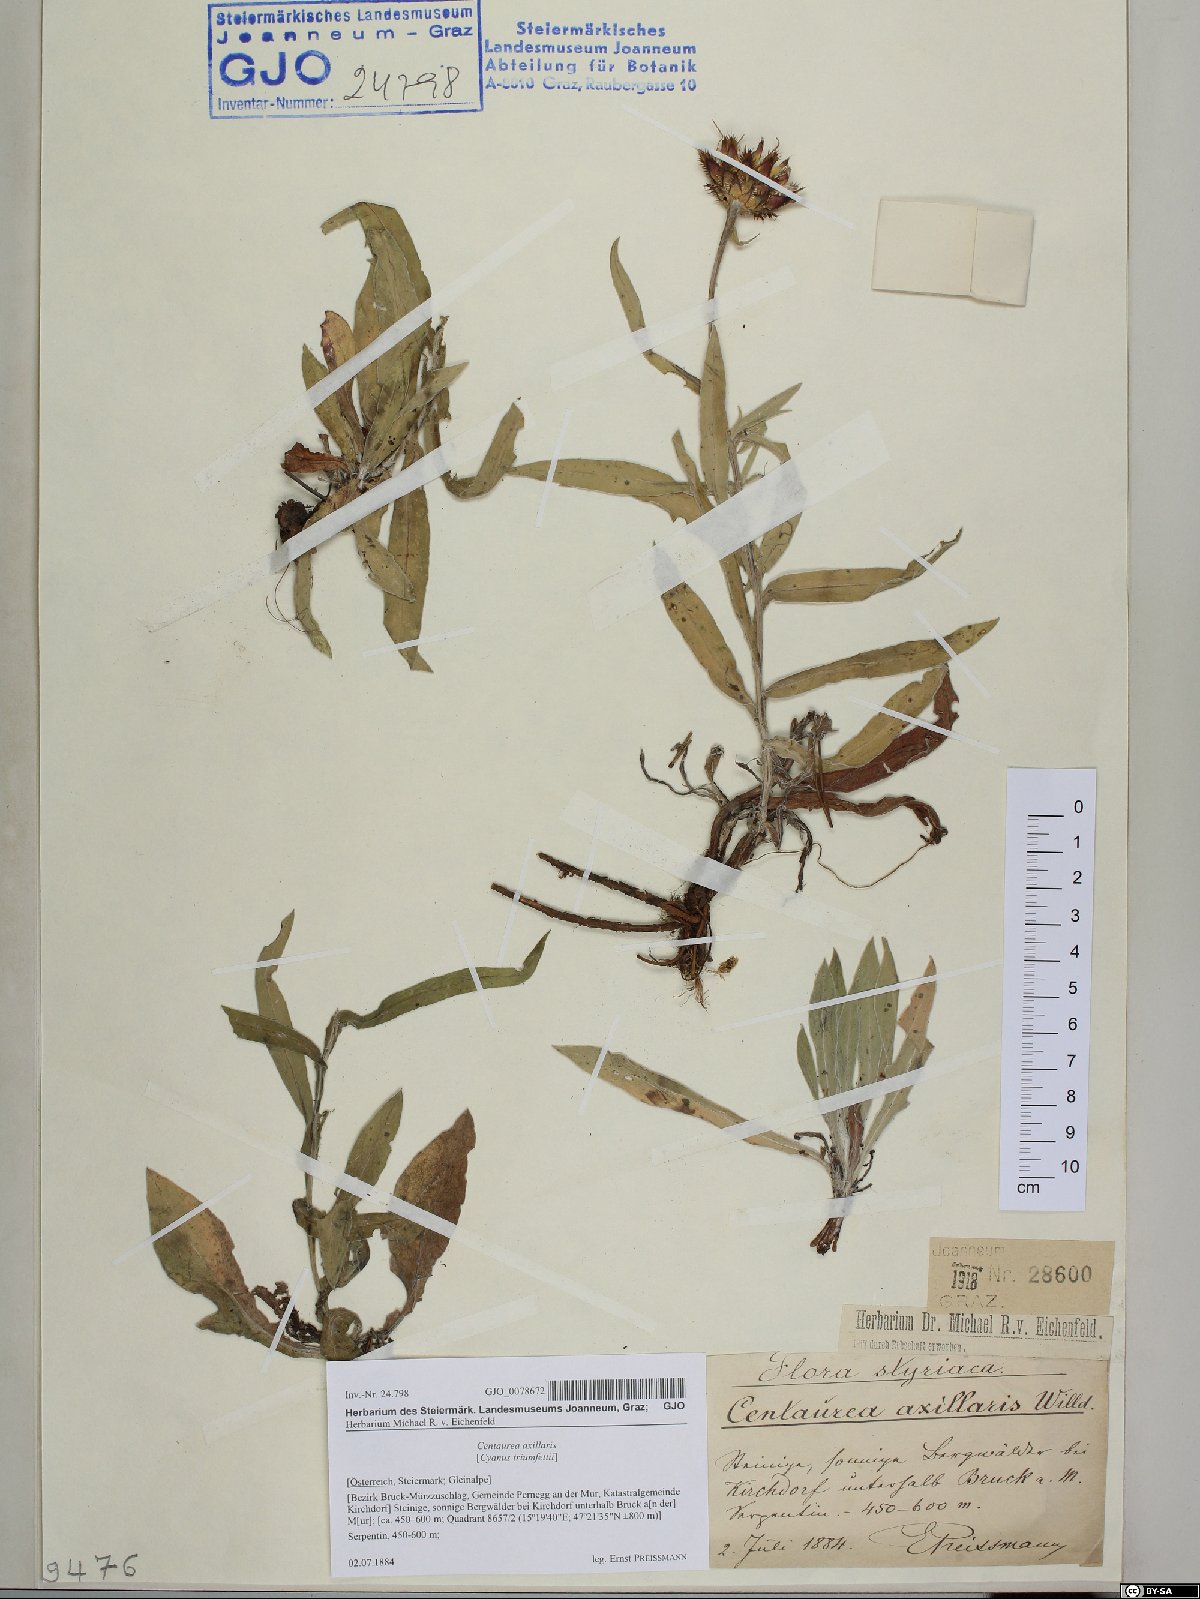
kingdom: Plantae
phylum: Tracheophyta
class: Magnoliopsida
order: Asterales
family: Asteraceae
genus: Centaurea
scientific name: Centaurea triumfettii
